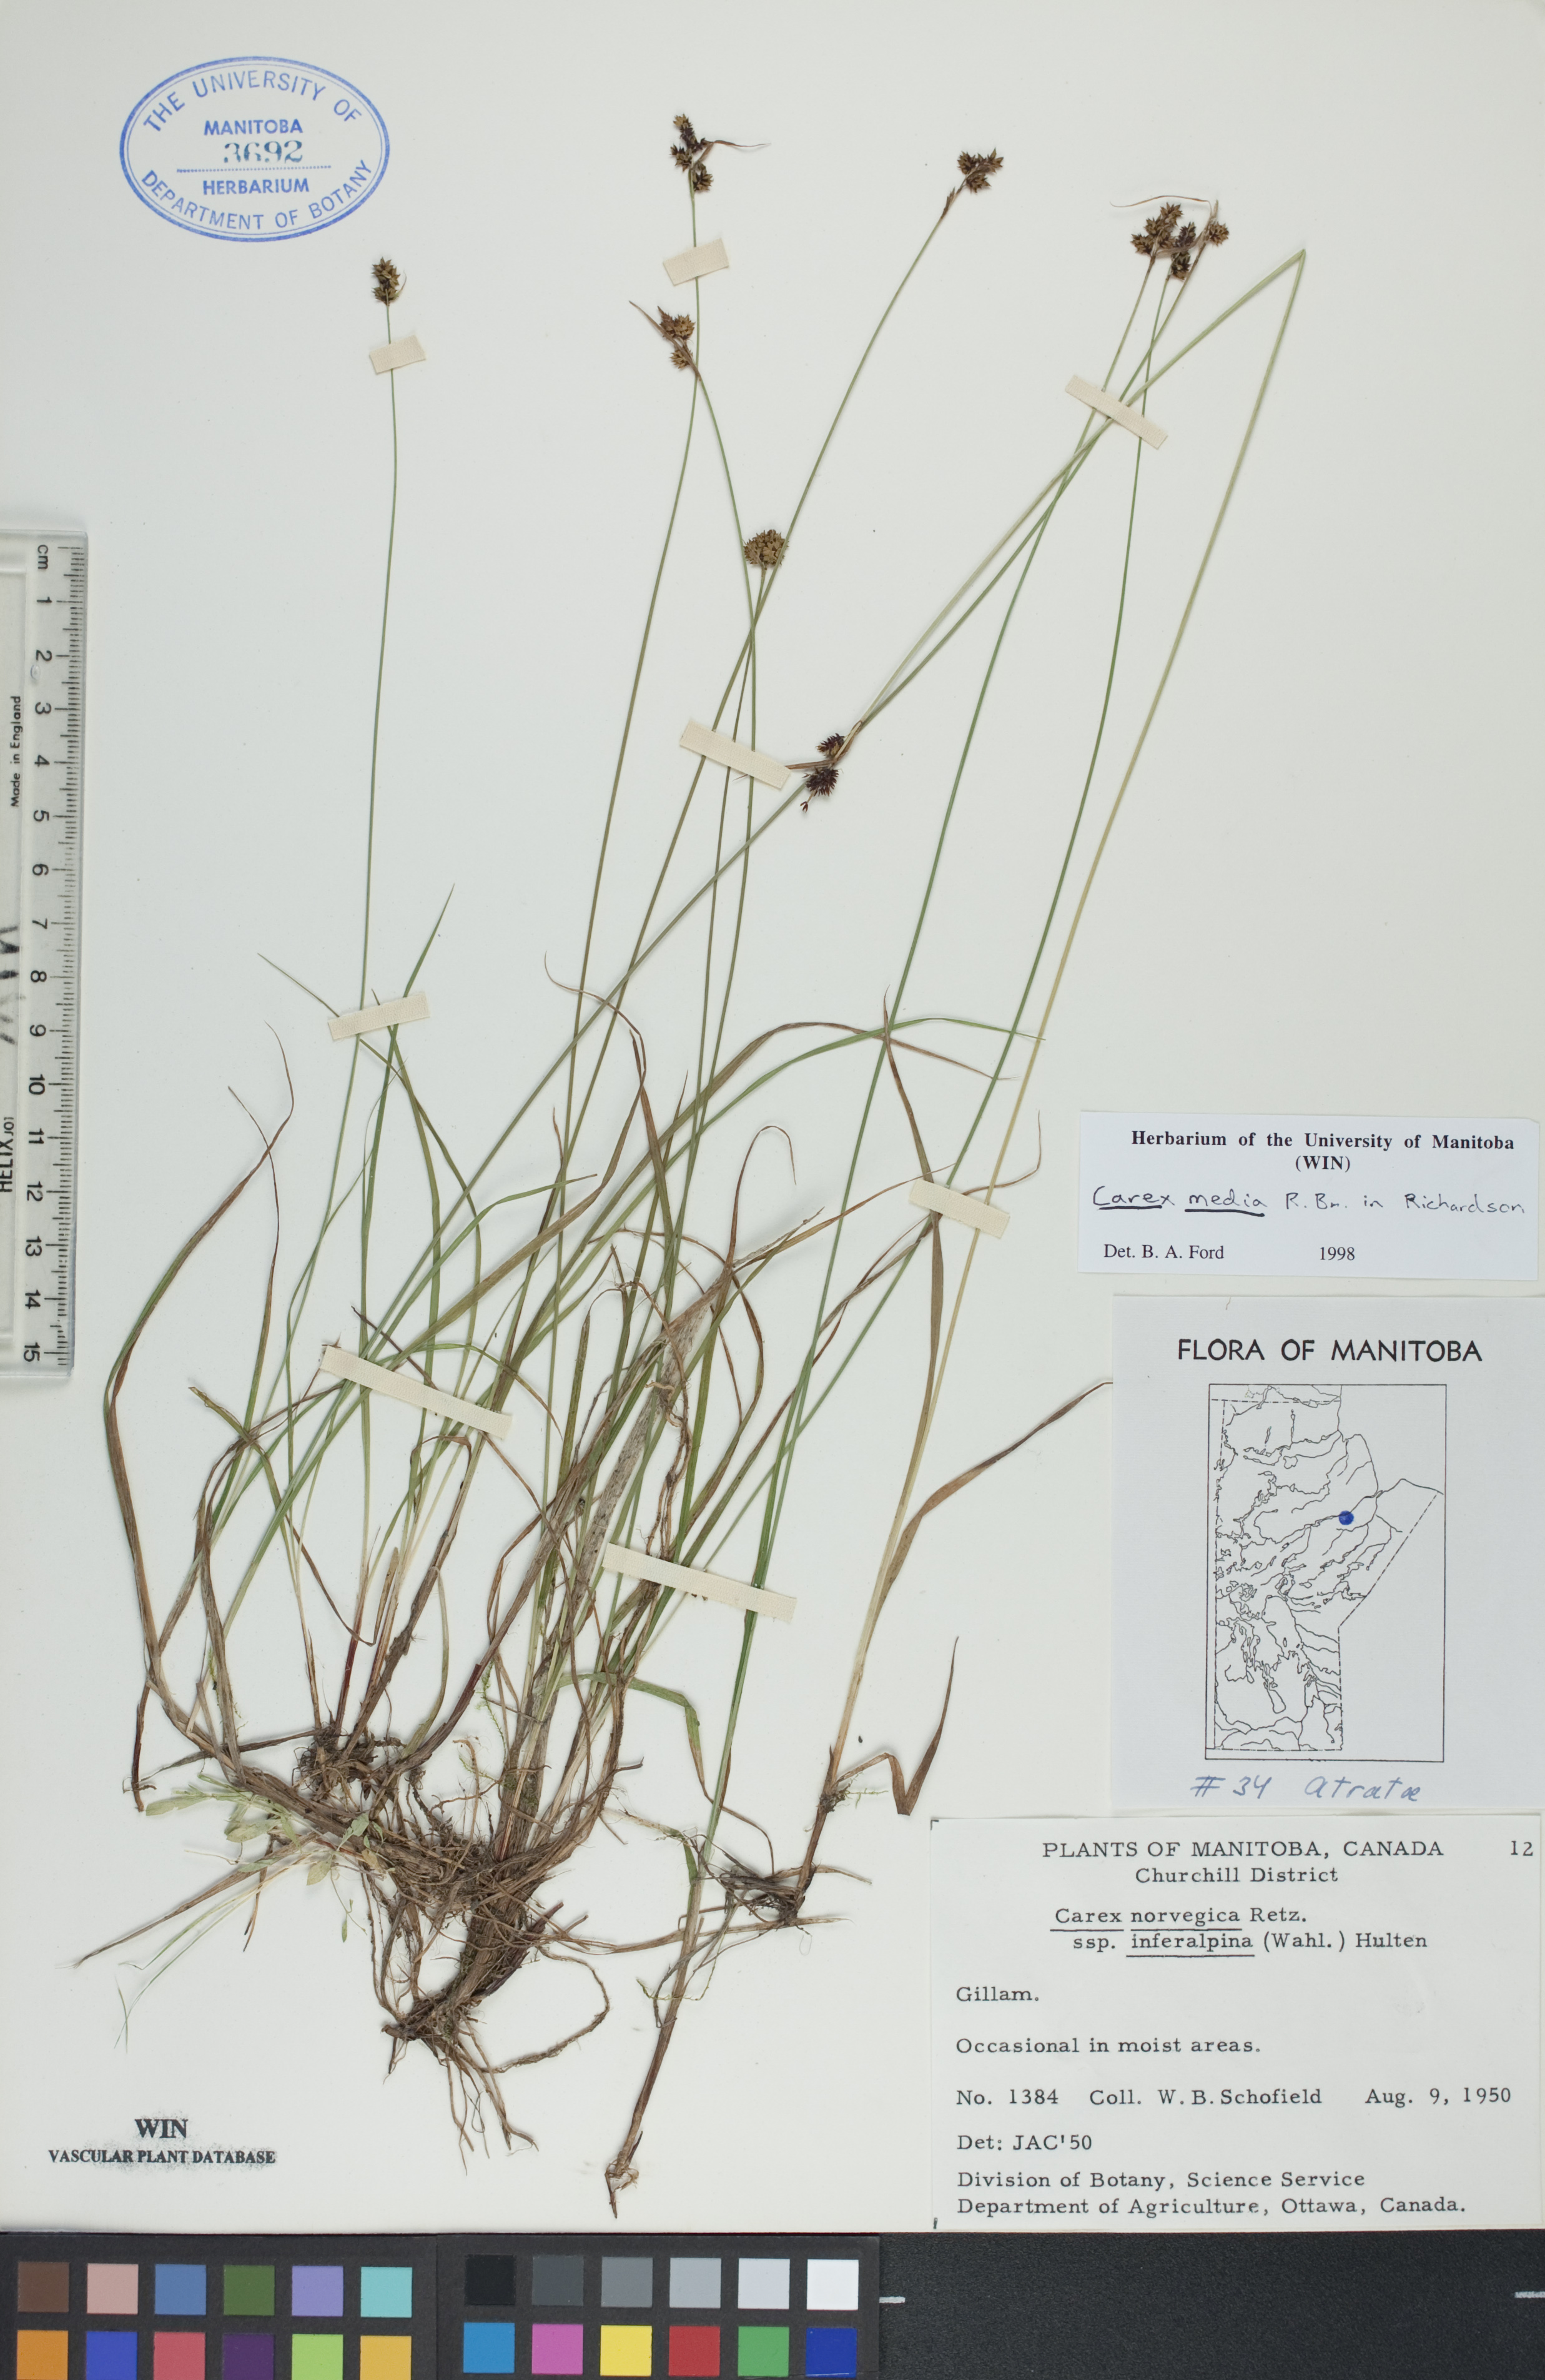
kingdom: Plantae
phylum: Tracheophyta
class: Liliopsida
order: Poales
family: Cyperaceae
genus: Carex
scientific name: Carex media
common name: Alpine sedge
